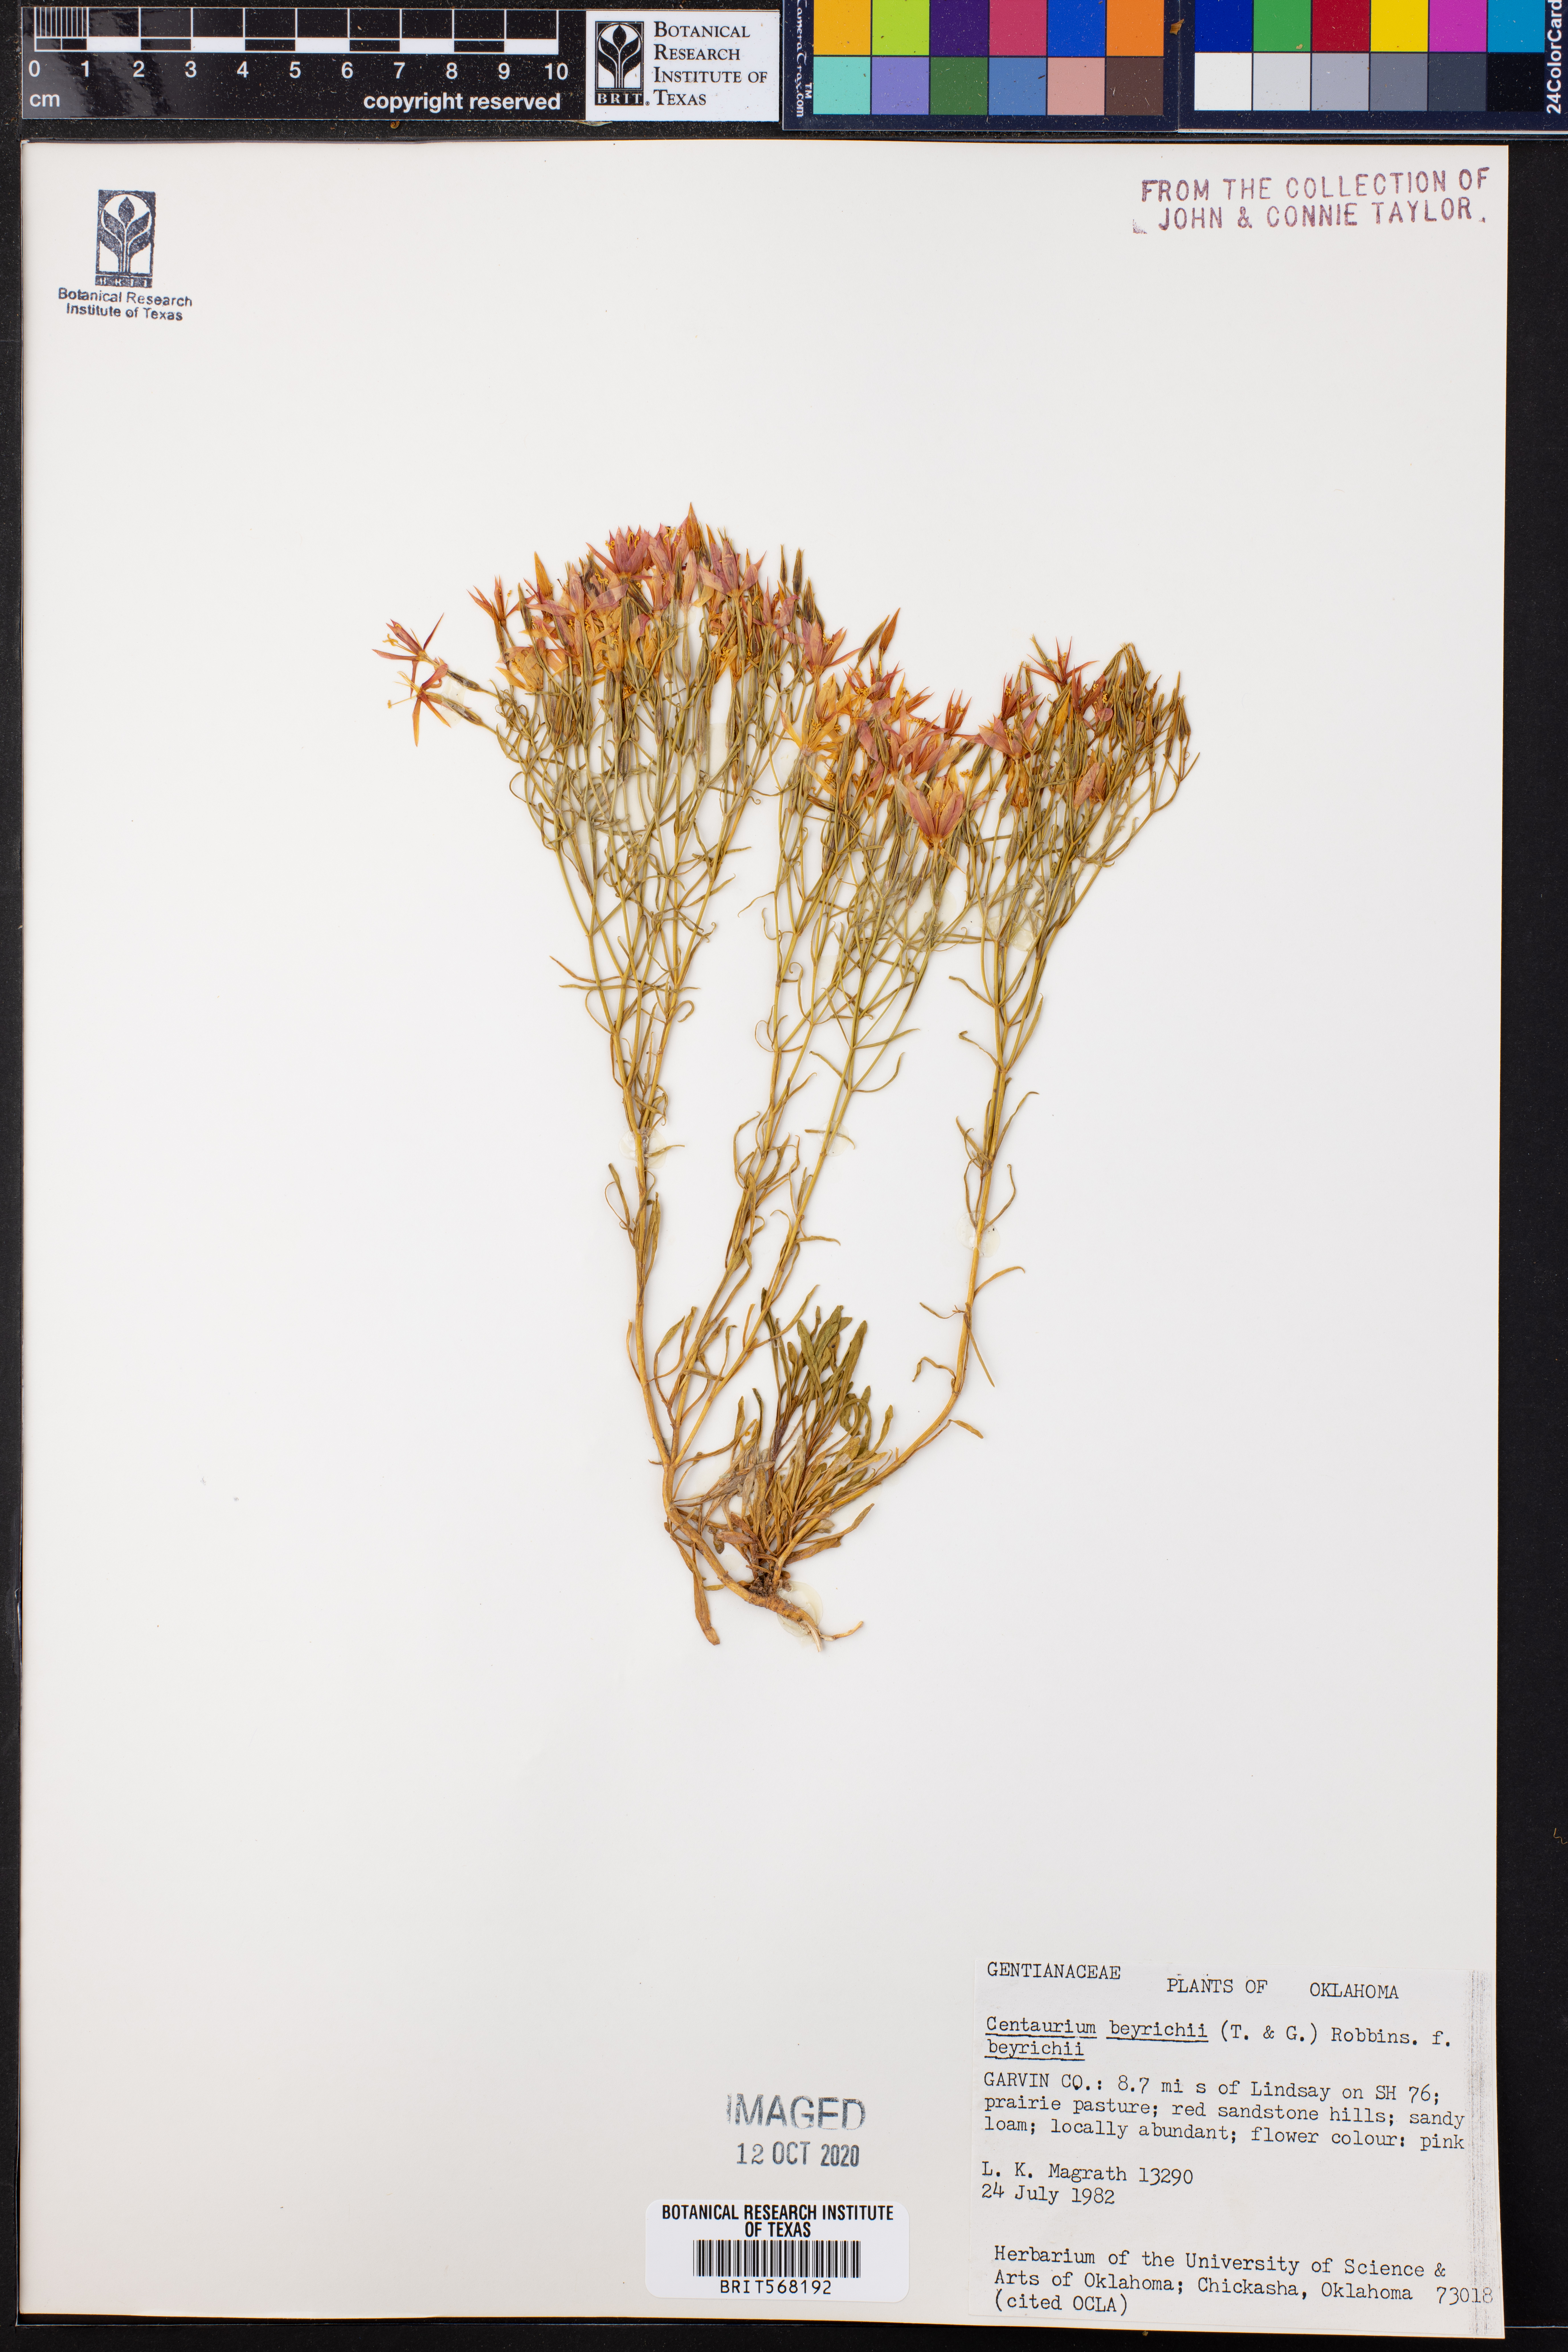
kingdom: Plantae
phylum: Tracheophyta
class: Magnoliopsida
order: Gentianales
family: Gentianaceae
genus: Zeltnera
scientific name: Zeltnera beyrichii
